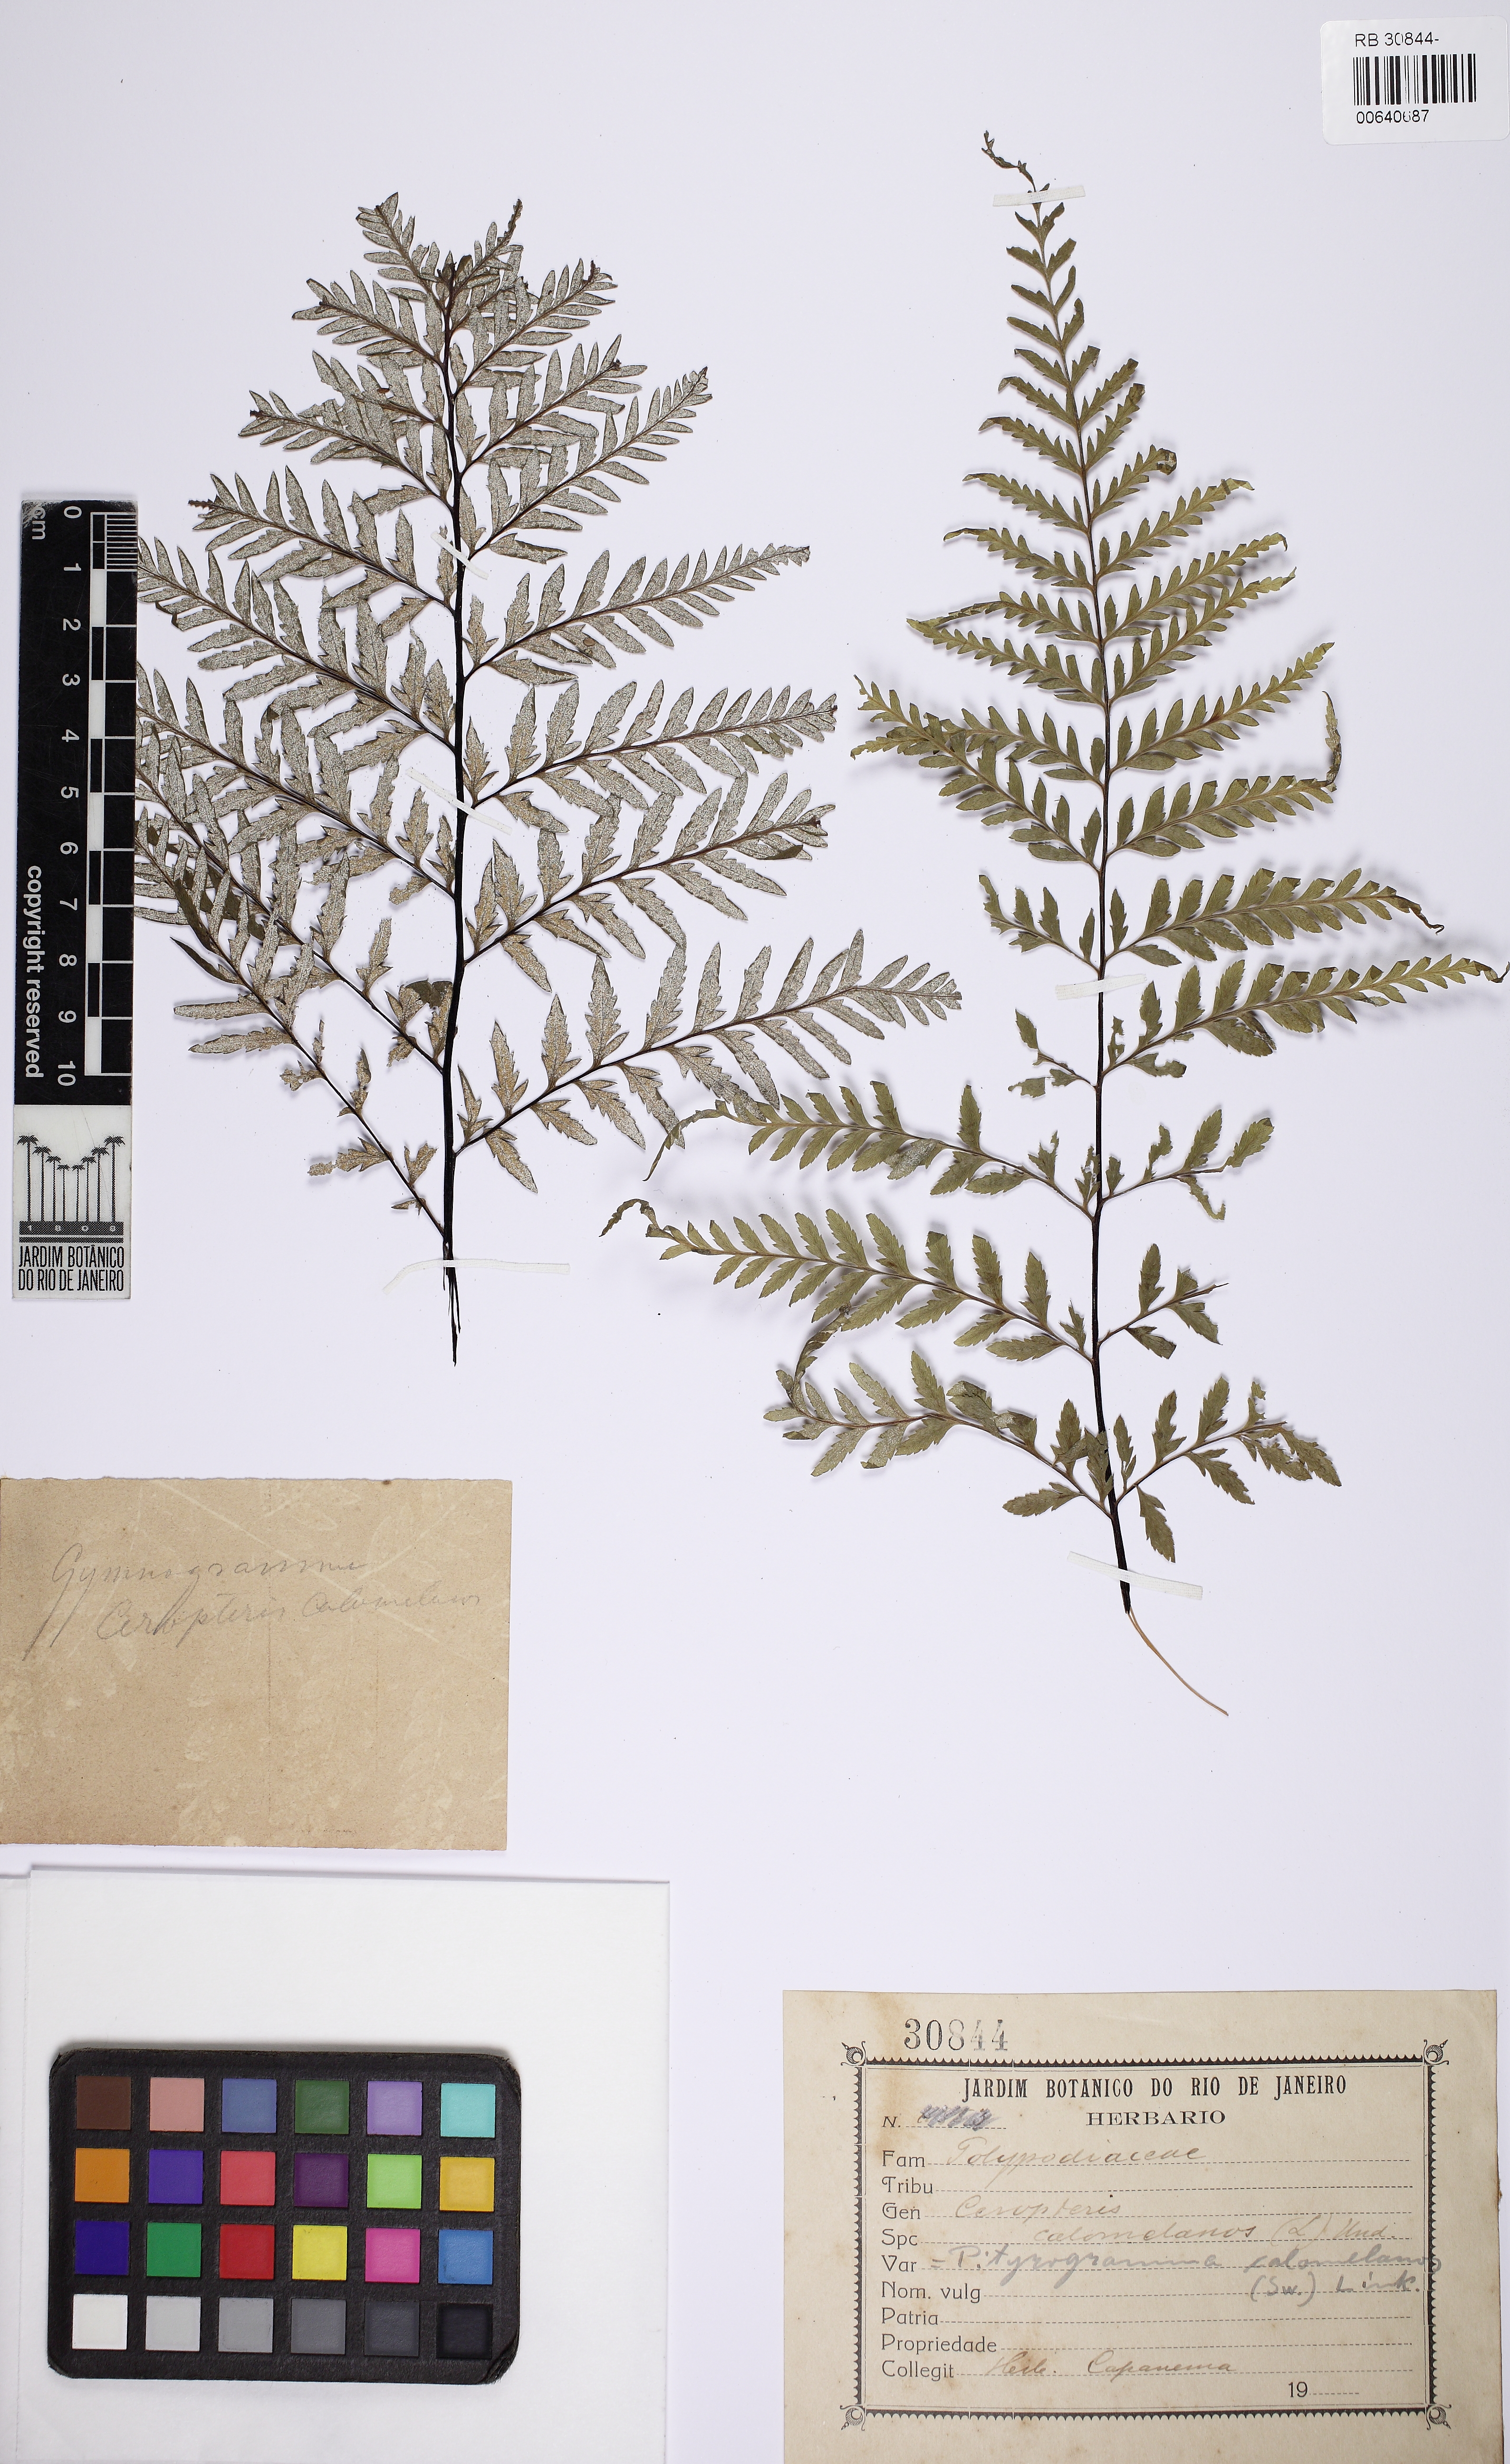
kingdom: Plantae
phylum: Tracheophyta
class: Polypodiopsida
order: Polypodiales
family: Pteridaceae
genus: Pityrogramma
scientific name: Pityrogramma calomelanos
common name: Dixie silverback fern
